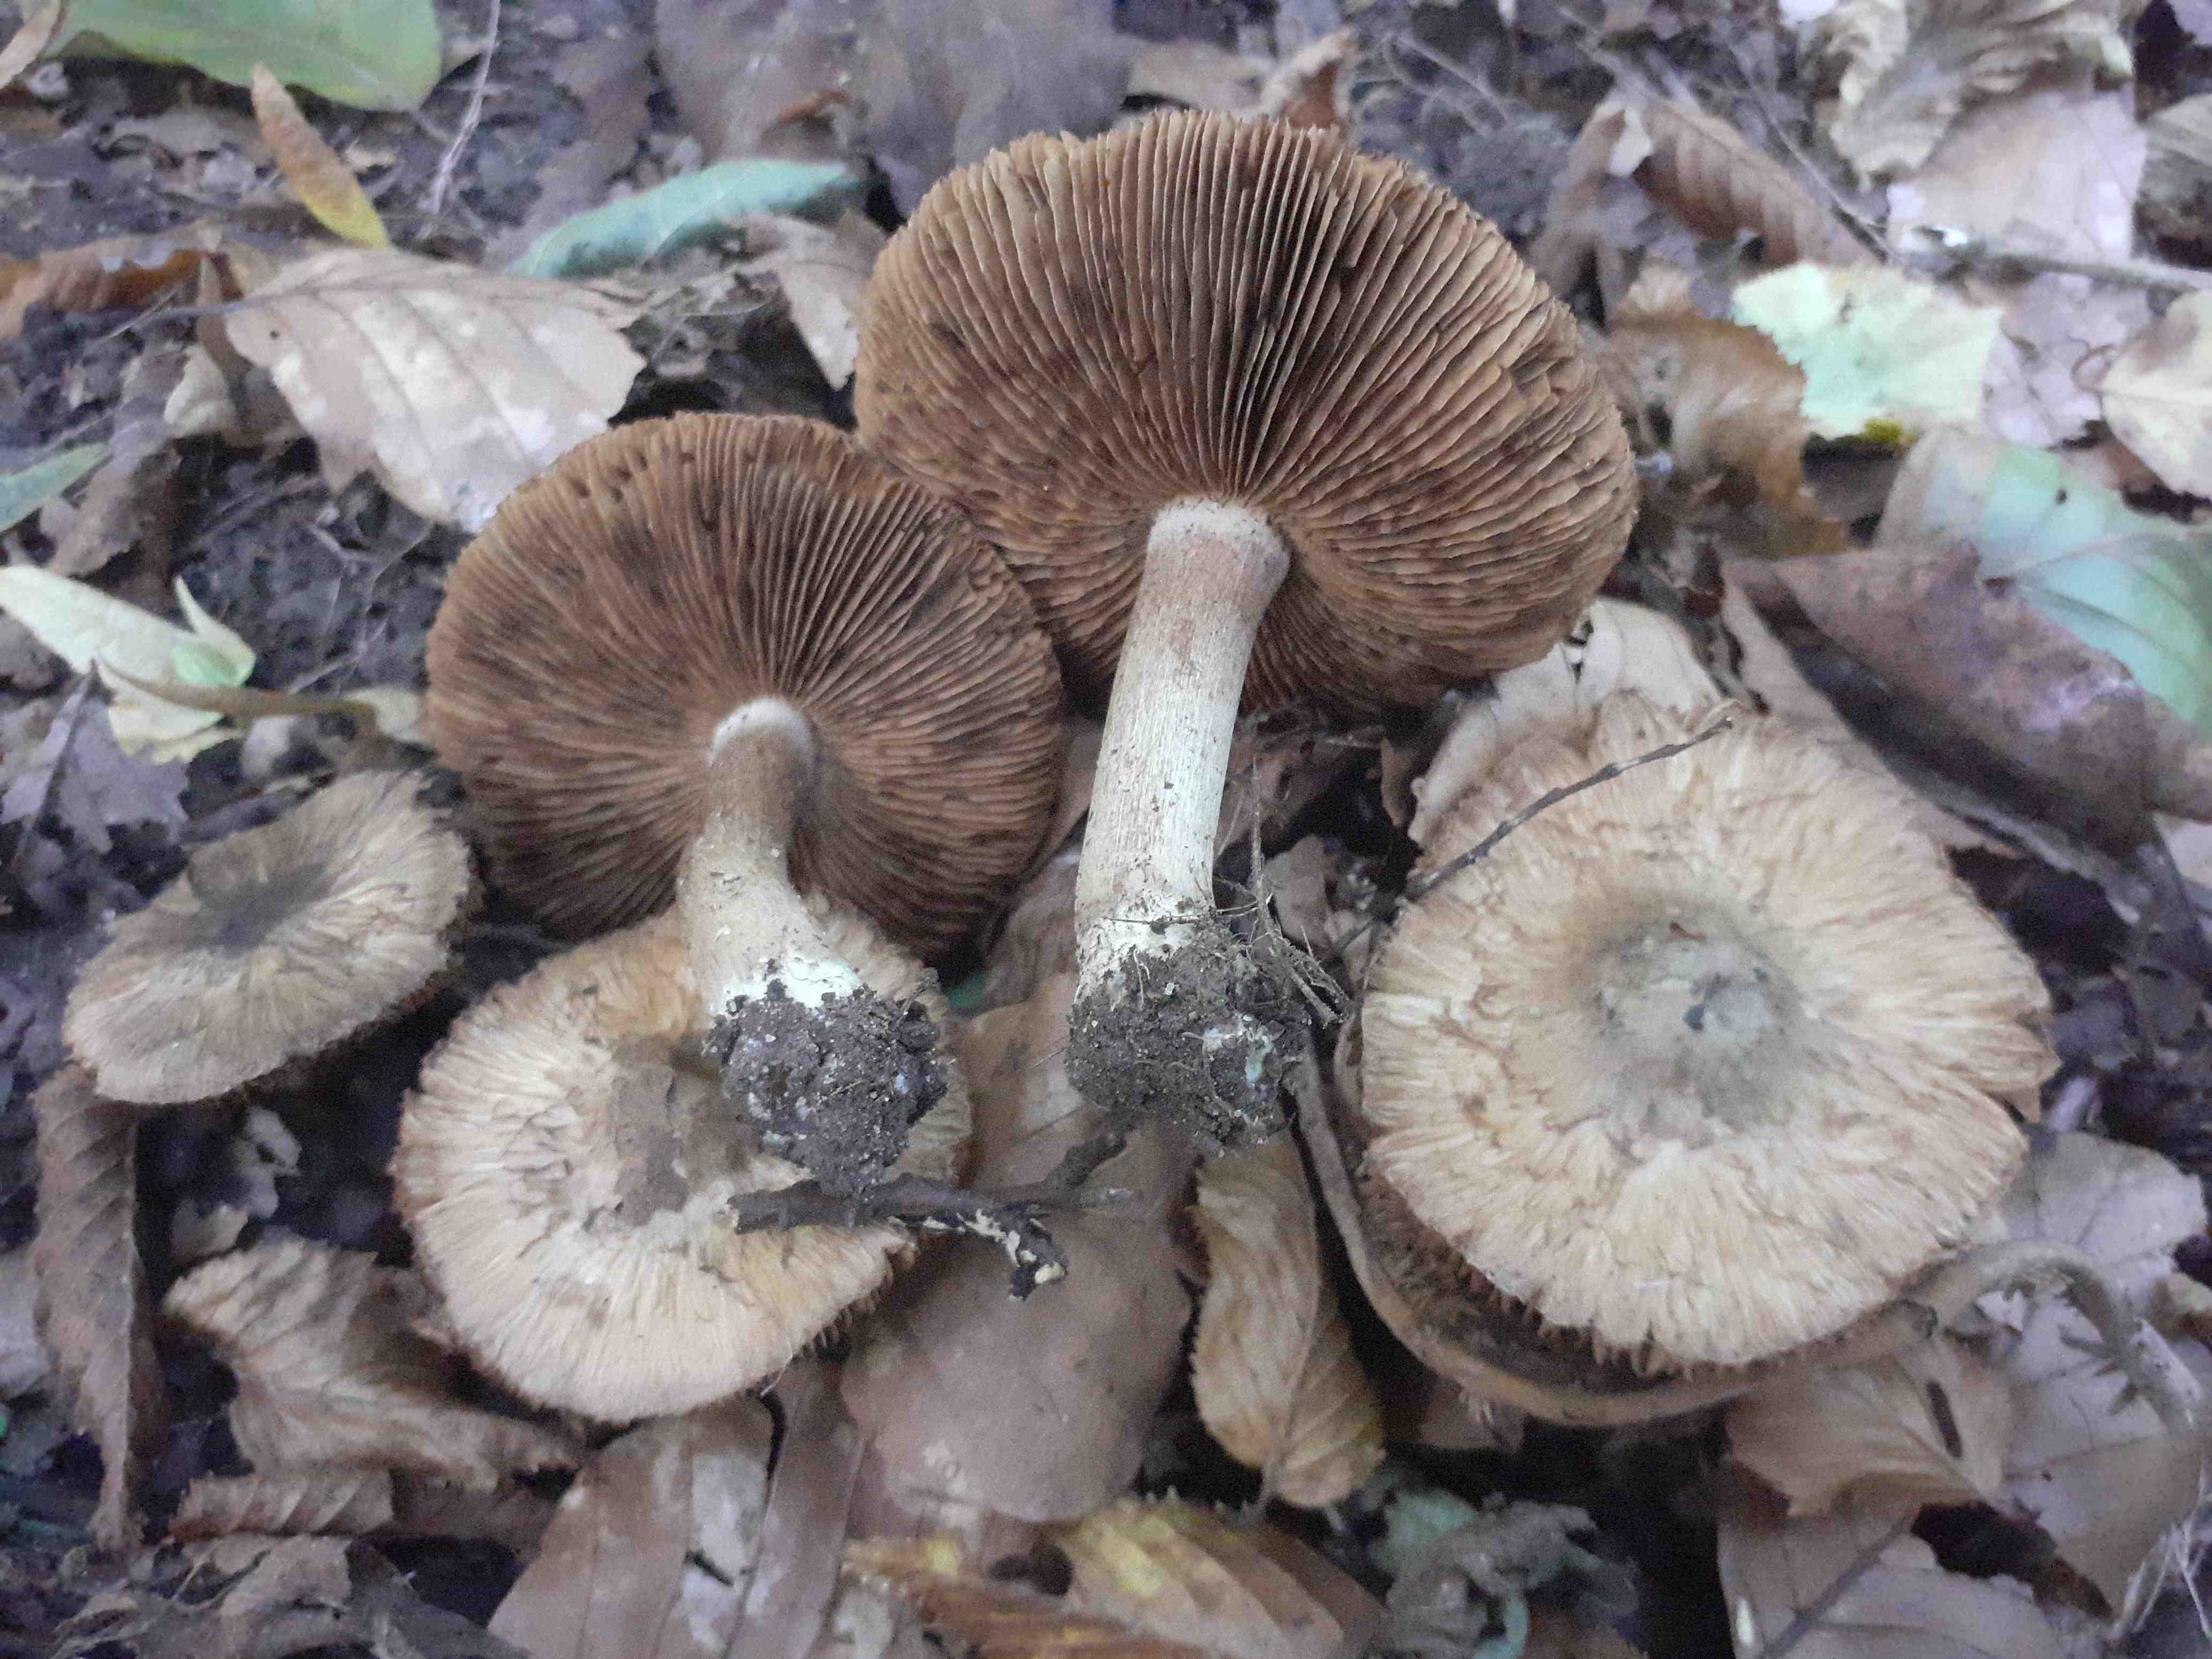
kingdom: Fungi
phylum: Basidiomycota
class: Agaricomycetes
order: Agaricales
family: Inocybaceae
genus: Inocybe
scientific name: Inocybe corydalina
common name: grønpuklet trævlhat
